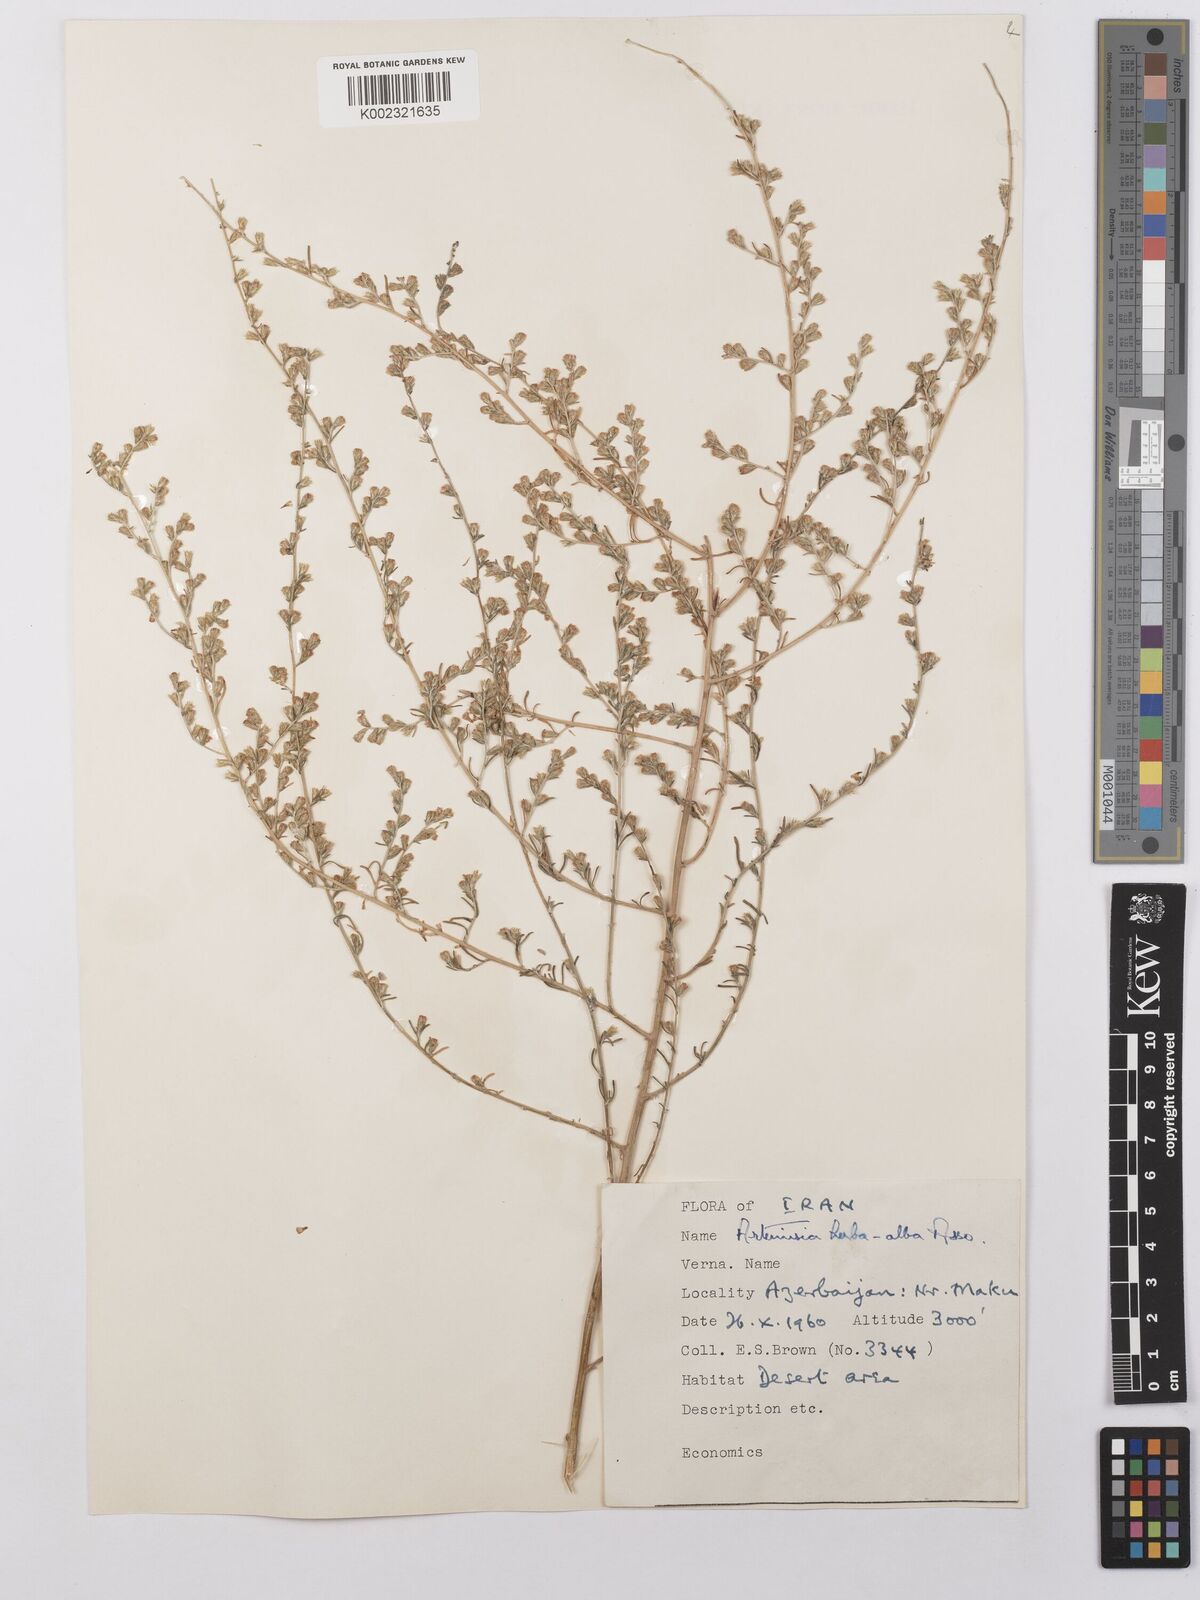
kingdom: Plantae
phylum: Tracheophyta
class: Magnoliopsida
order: Asterales
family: Asteraceae
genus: Artemisia
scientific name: Artemisia herba-alba
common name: White wormwood
